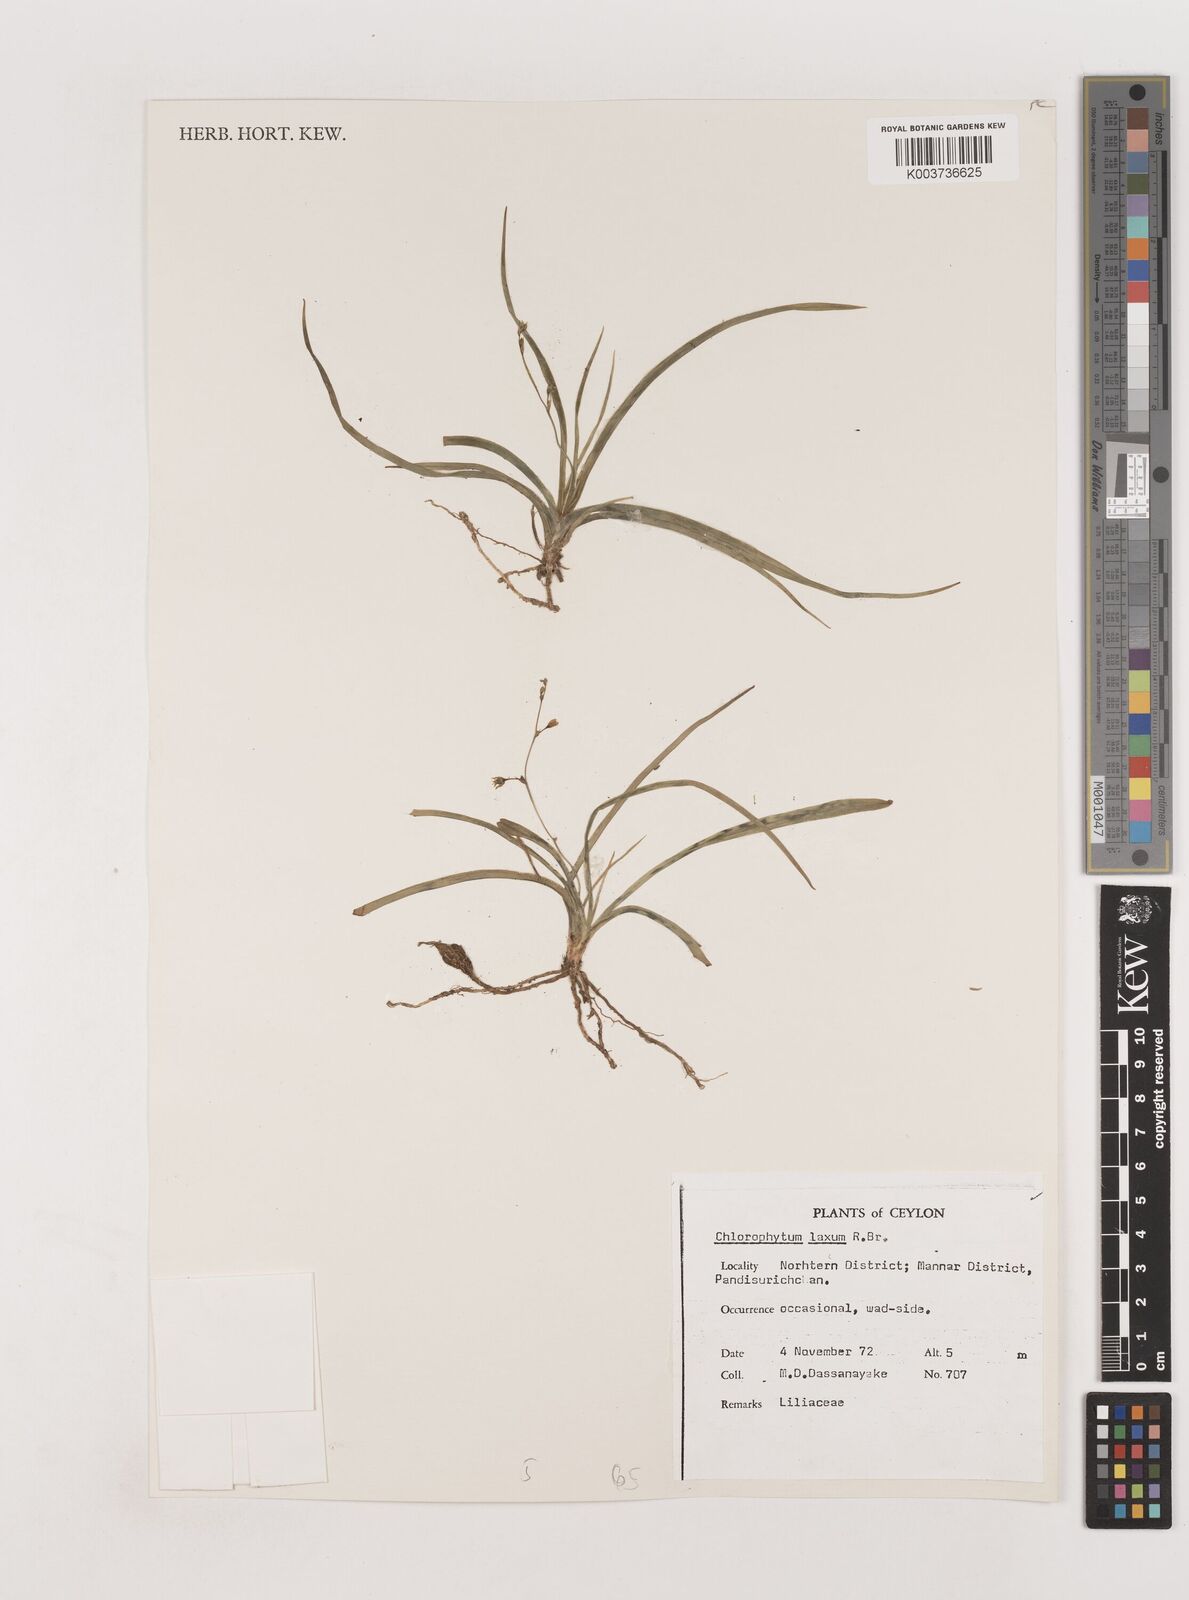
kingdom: Plantae
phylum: Tracheophyta
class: Liliopsida
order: Asparagales
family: Asparagaceae
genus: Chlorophytum
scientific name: Chlorophytum laxum
